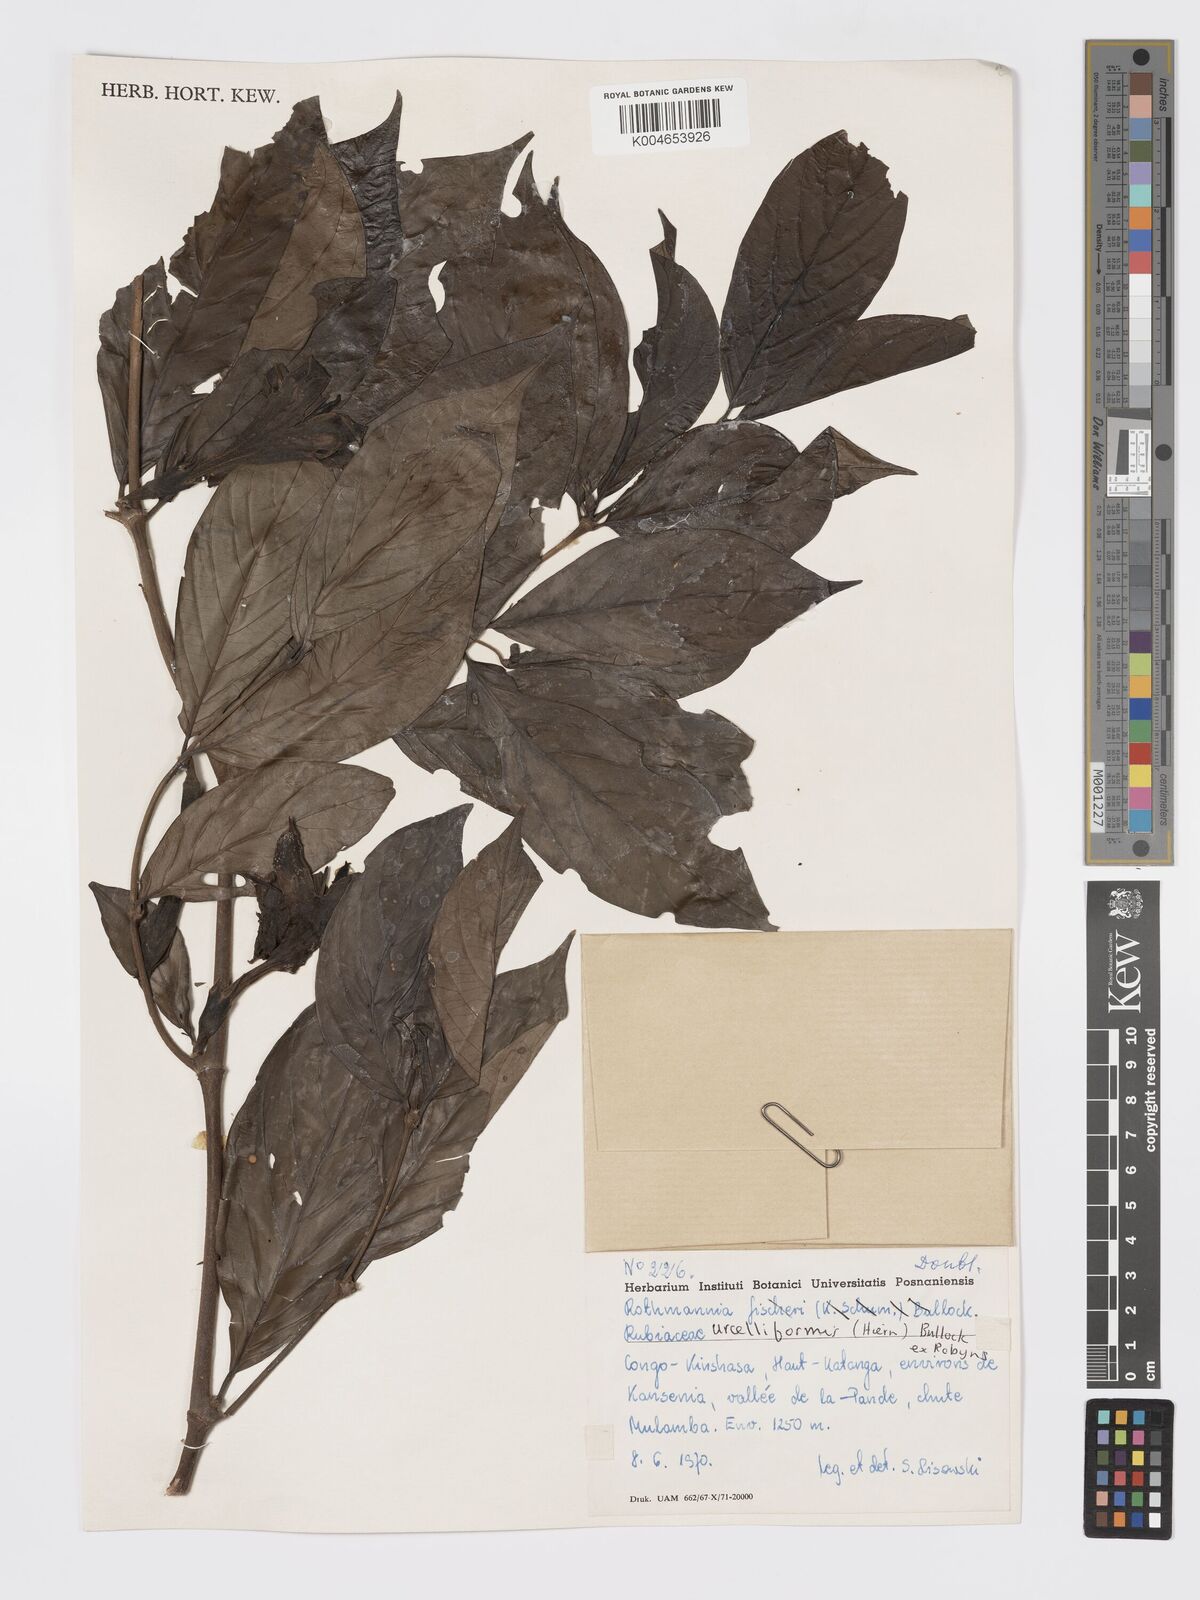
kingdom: Plantae
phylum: Tracheophyta
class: Magnoliopsida
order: Gentianales
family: Rubiaceae
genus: Rothmannia
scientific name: Rothmannia urcelliformis
